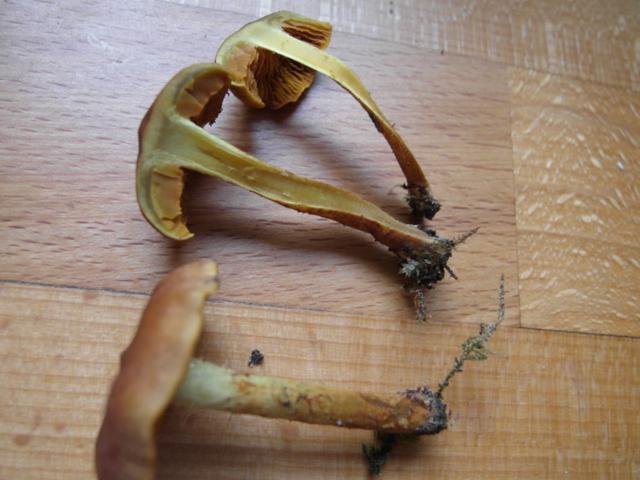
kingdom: Fungi
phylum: Basidiomycota
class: Agaricomycetes
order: Agaricales
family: Cortinariaceae
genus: Cortinarius
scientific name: Cortinarius malicorius
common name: grønkødet slørhat
